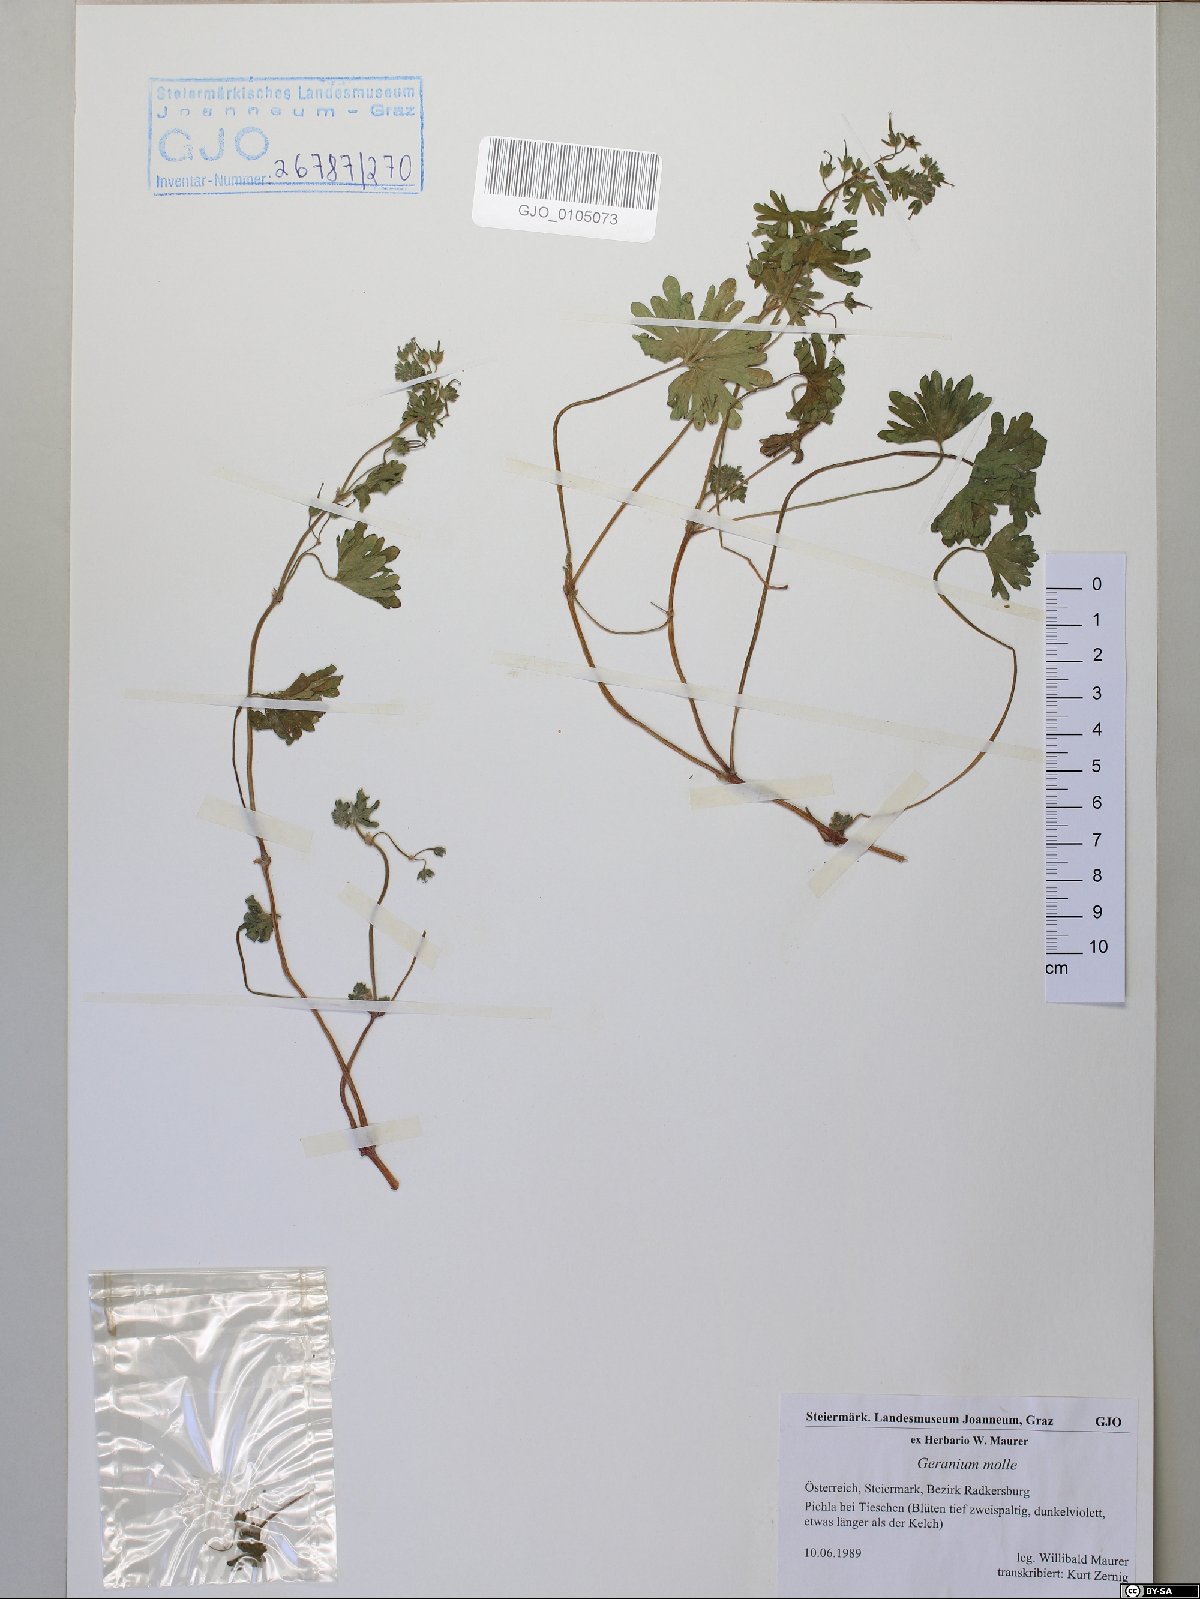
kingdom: Plantae
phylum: Tracheophyta
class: Magnoliopsida
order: Geraniales
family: Geraniaceae
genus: Geranium
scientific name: Geranium molle
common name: Dove's-foot crane's-bill
